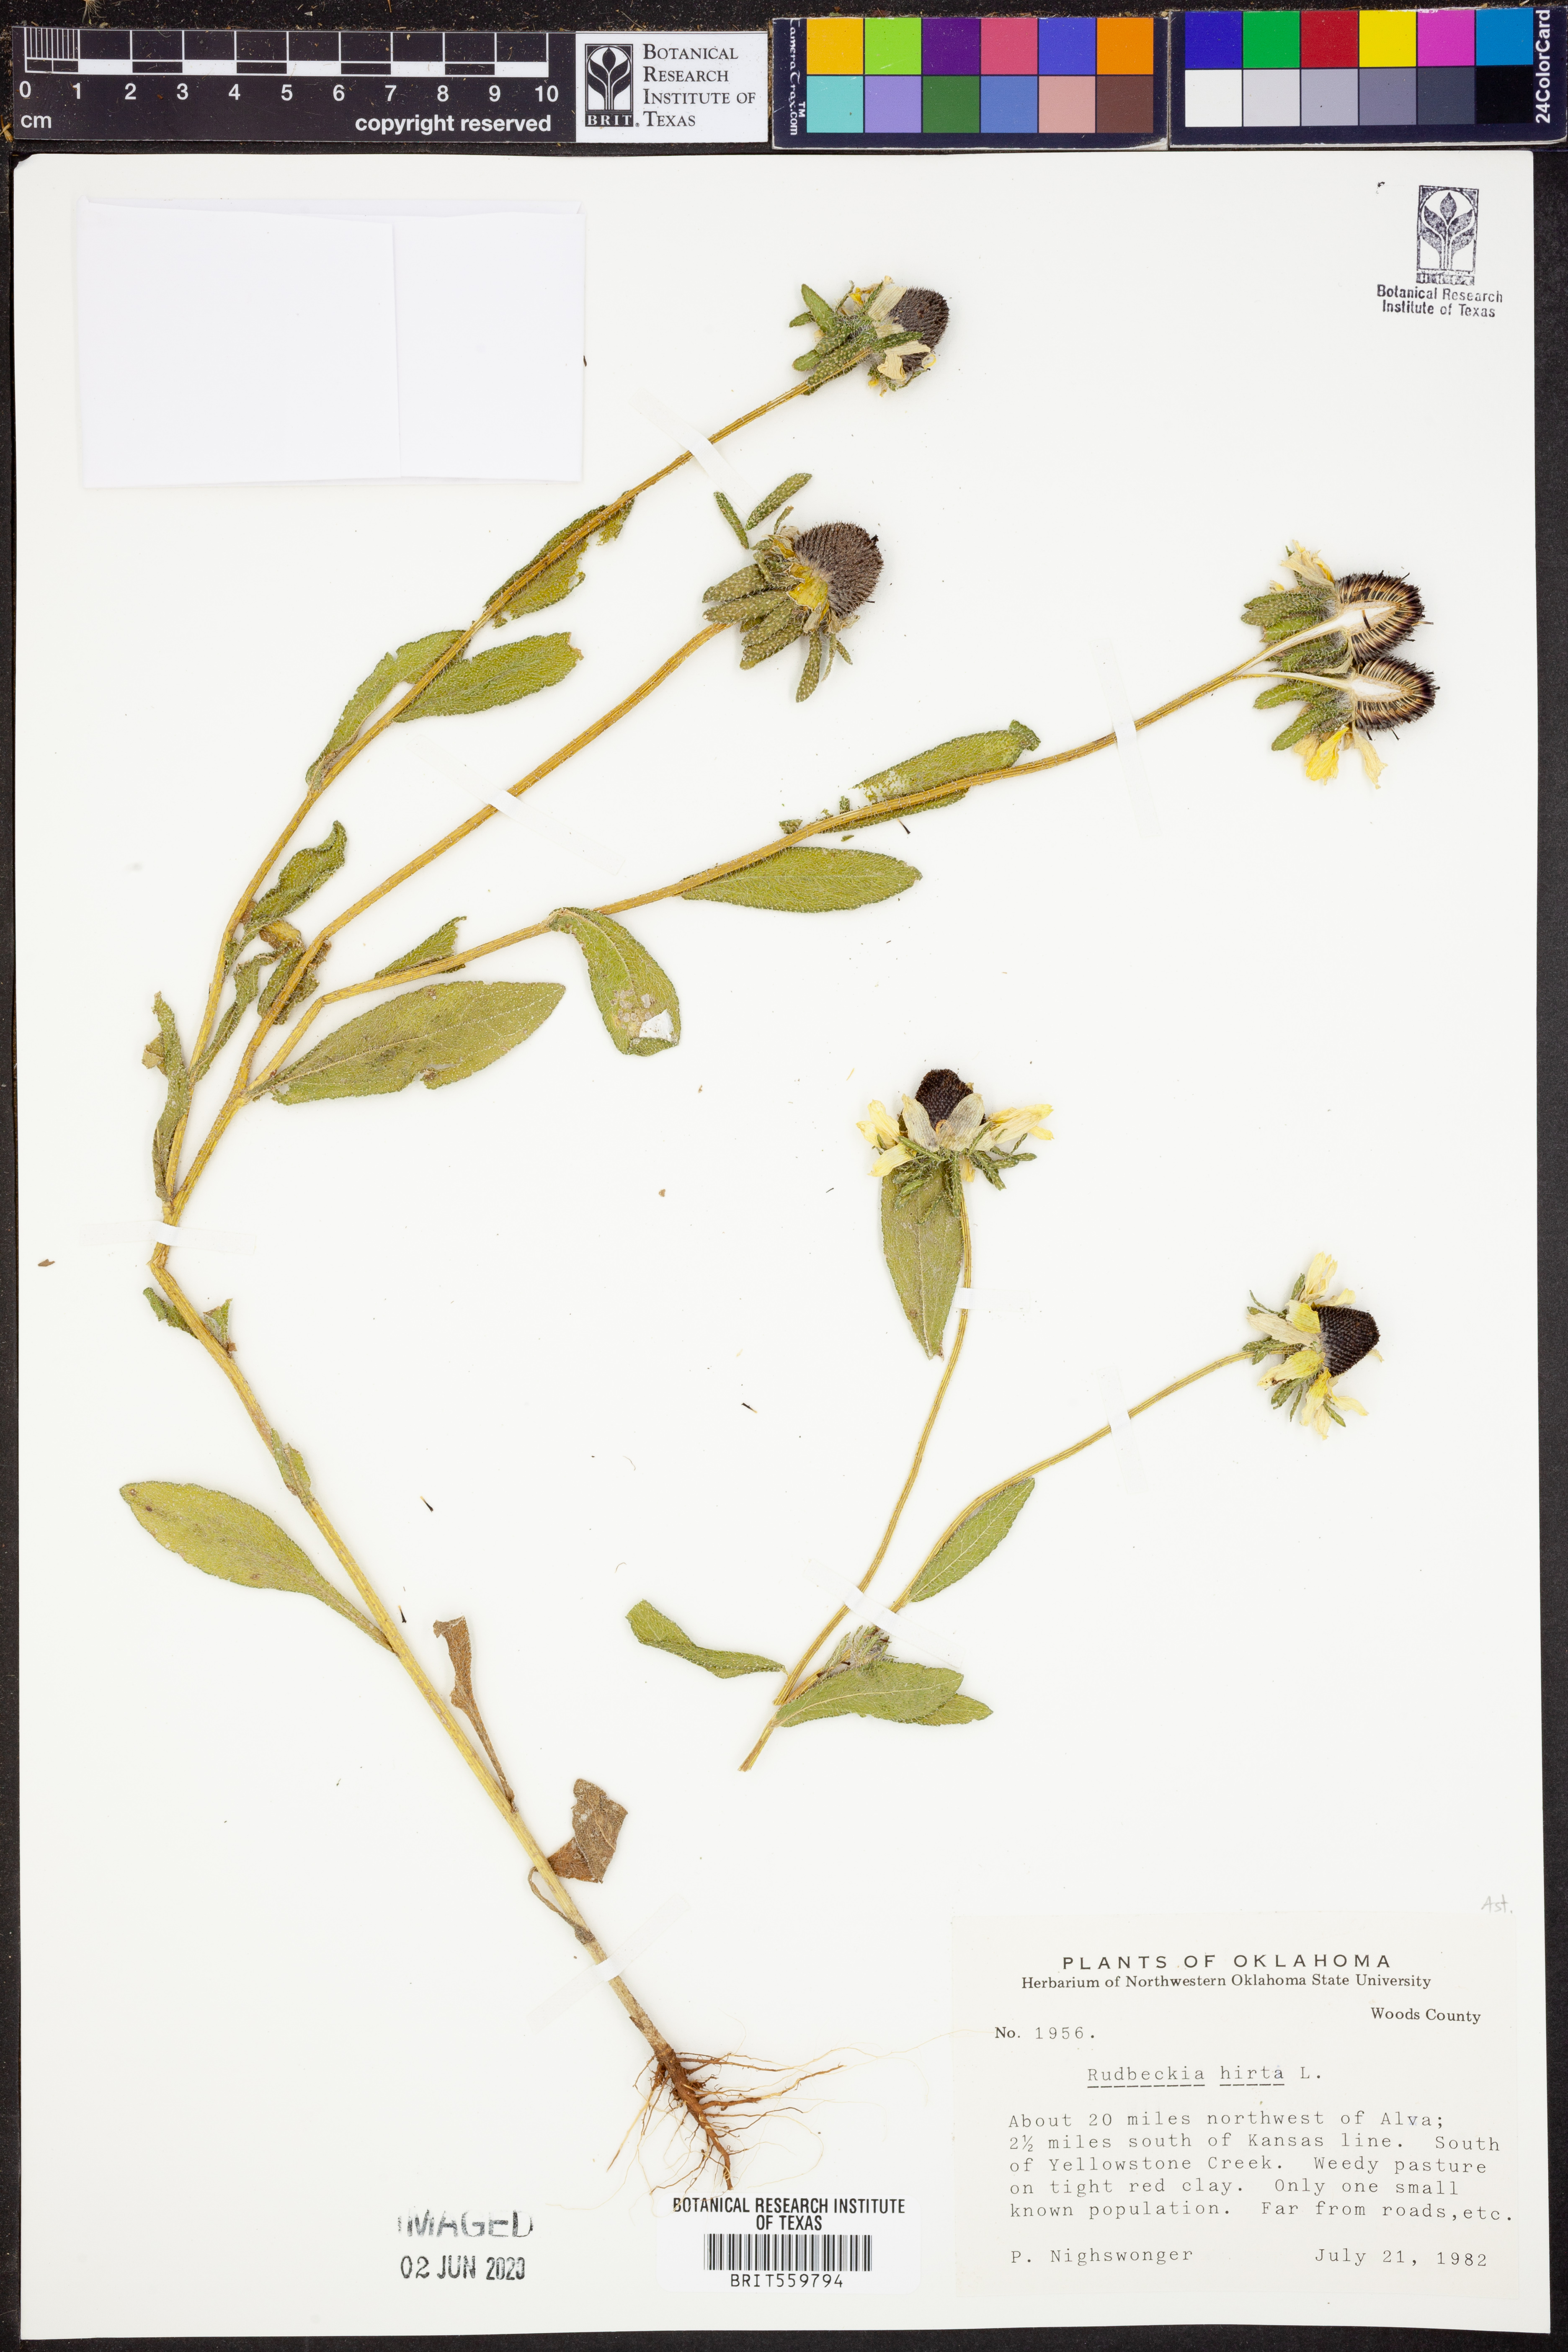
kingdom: Plantae
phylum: Tracheophyta
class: Magnoliopsida
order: Asterales
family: Asteraceae
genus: Rudbeckia
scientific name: Rudbeckia hirta
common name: Black-eyed-susan
